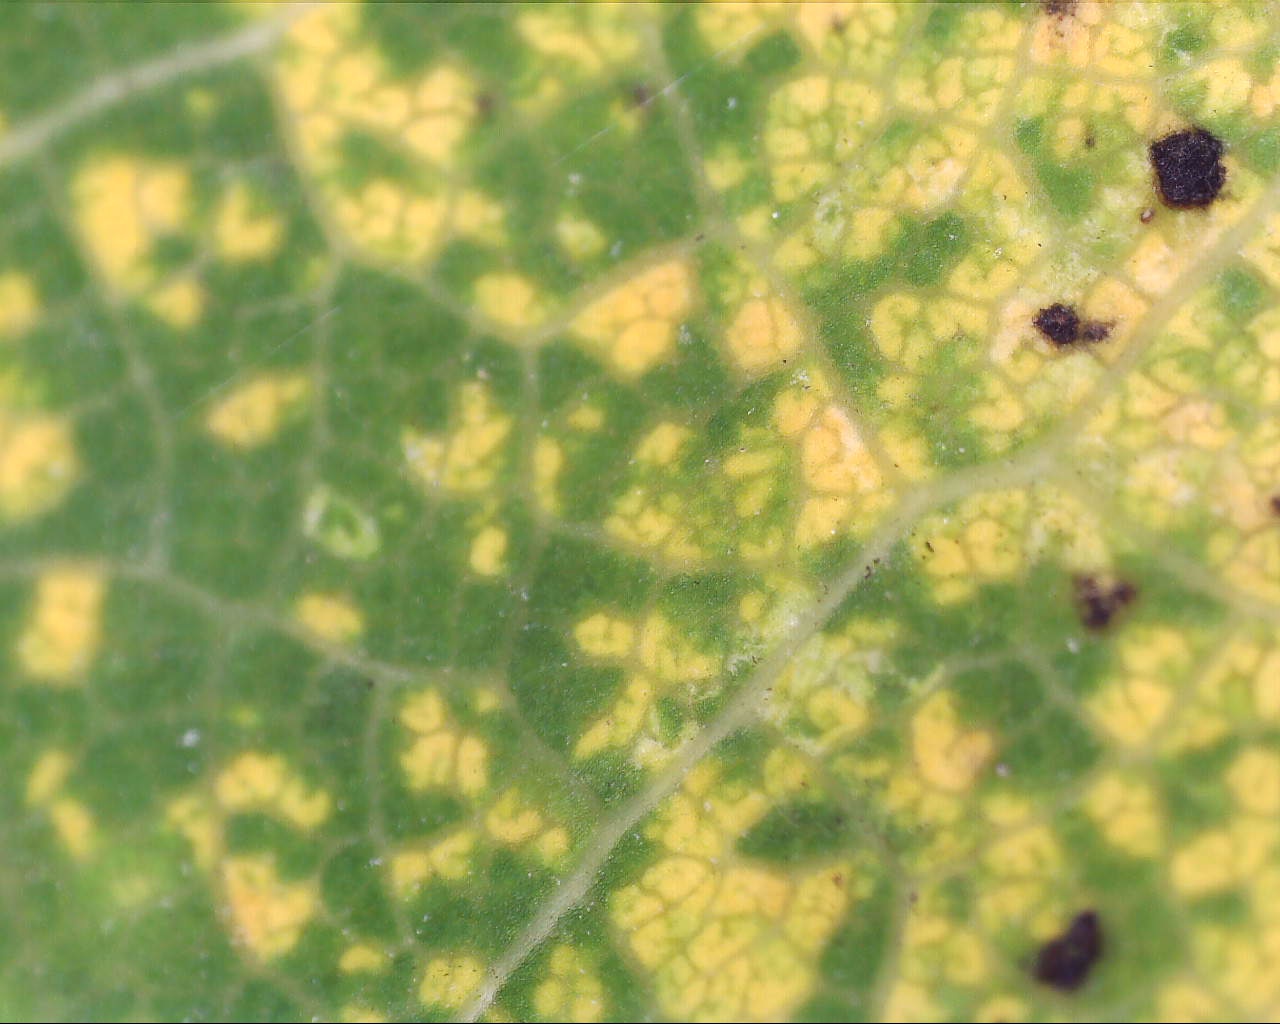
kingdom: Fungi
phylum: Basidiomycota
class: Pucciniomycetes
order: Pucciniales
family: Melampsoraceae
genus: Melampsora
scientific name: Melampsora
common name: skorperust
